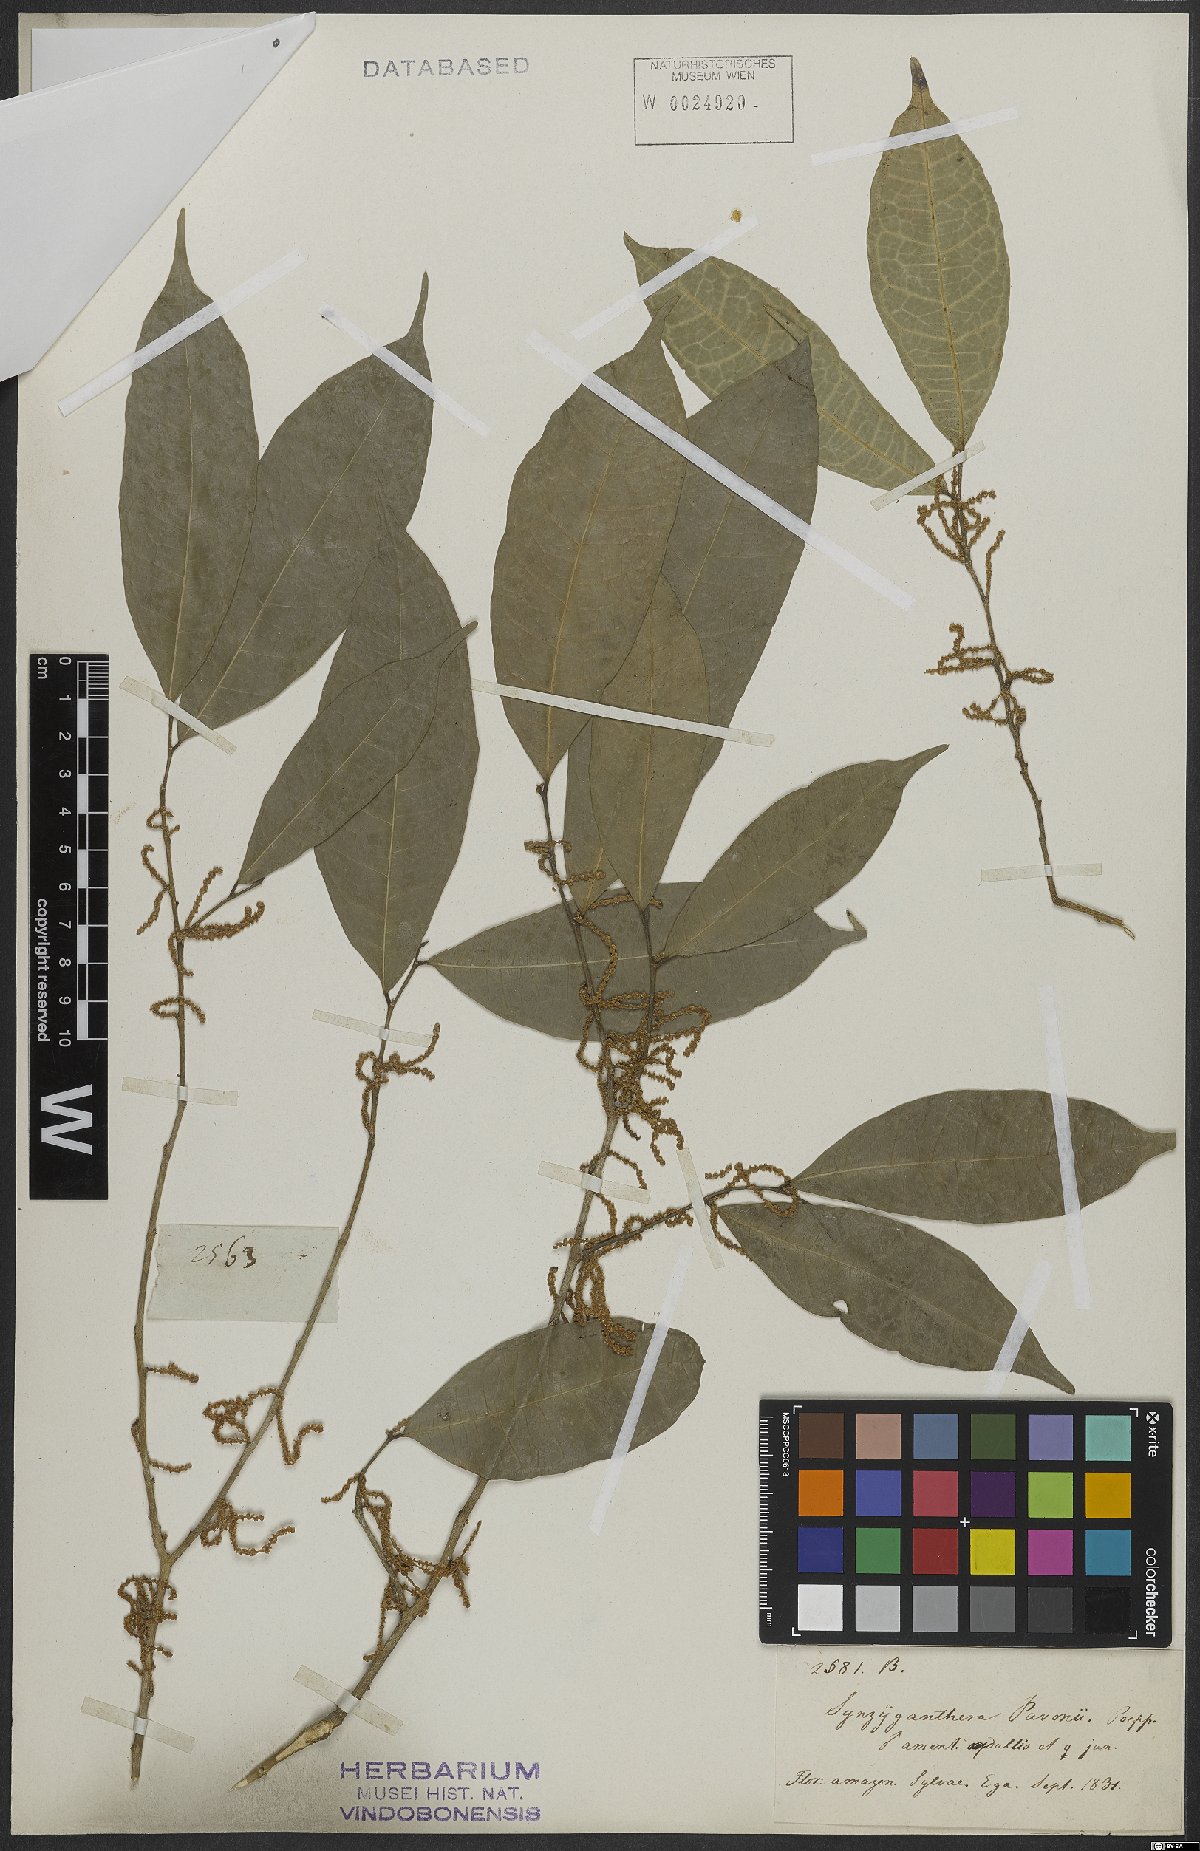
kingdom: Plantae
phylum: Tracheophyta
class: Magnoliopsida
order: Malpighiales
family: Lacistemataceae
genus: Lacistema
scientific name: Lacistema
